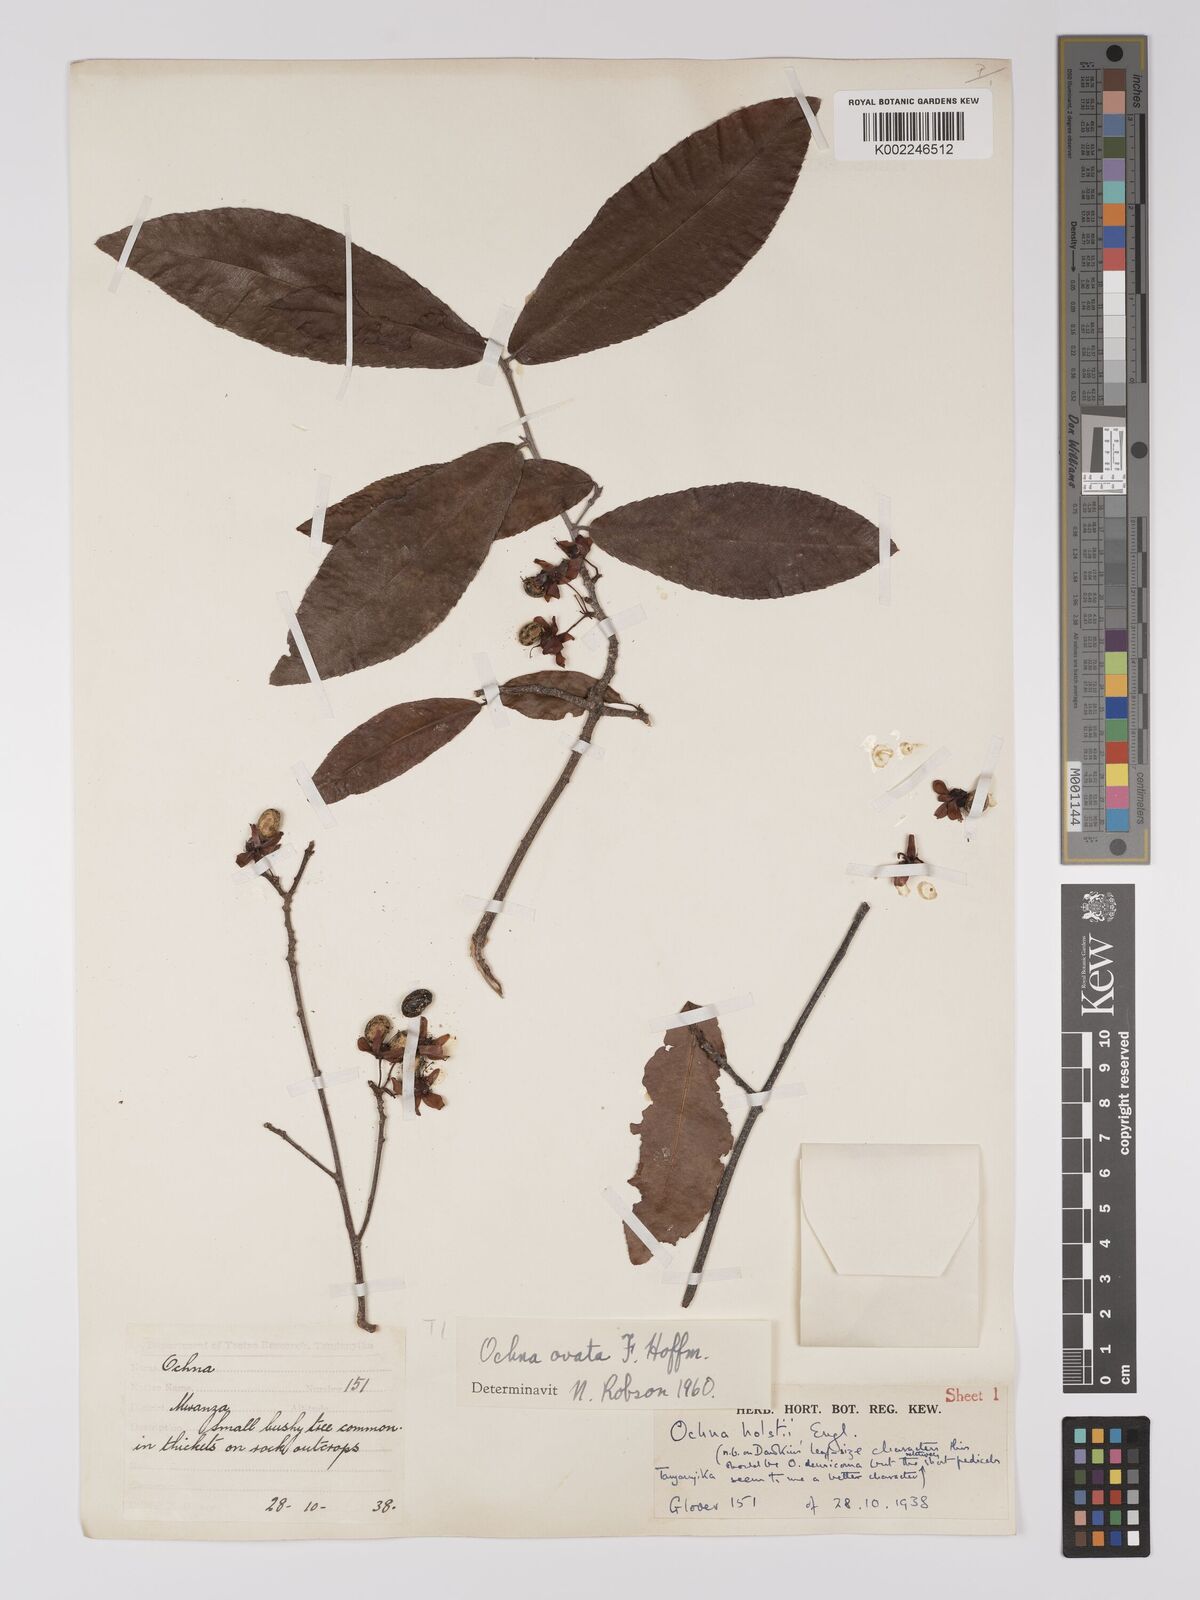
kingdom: Plantae
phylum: Tracheophyta
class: Magnoliopsida
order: Malpighiales
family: Ochnaceae
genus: Ochna
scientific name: Ochna ovata
